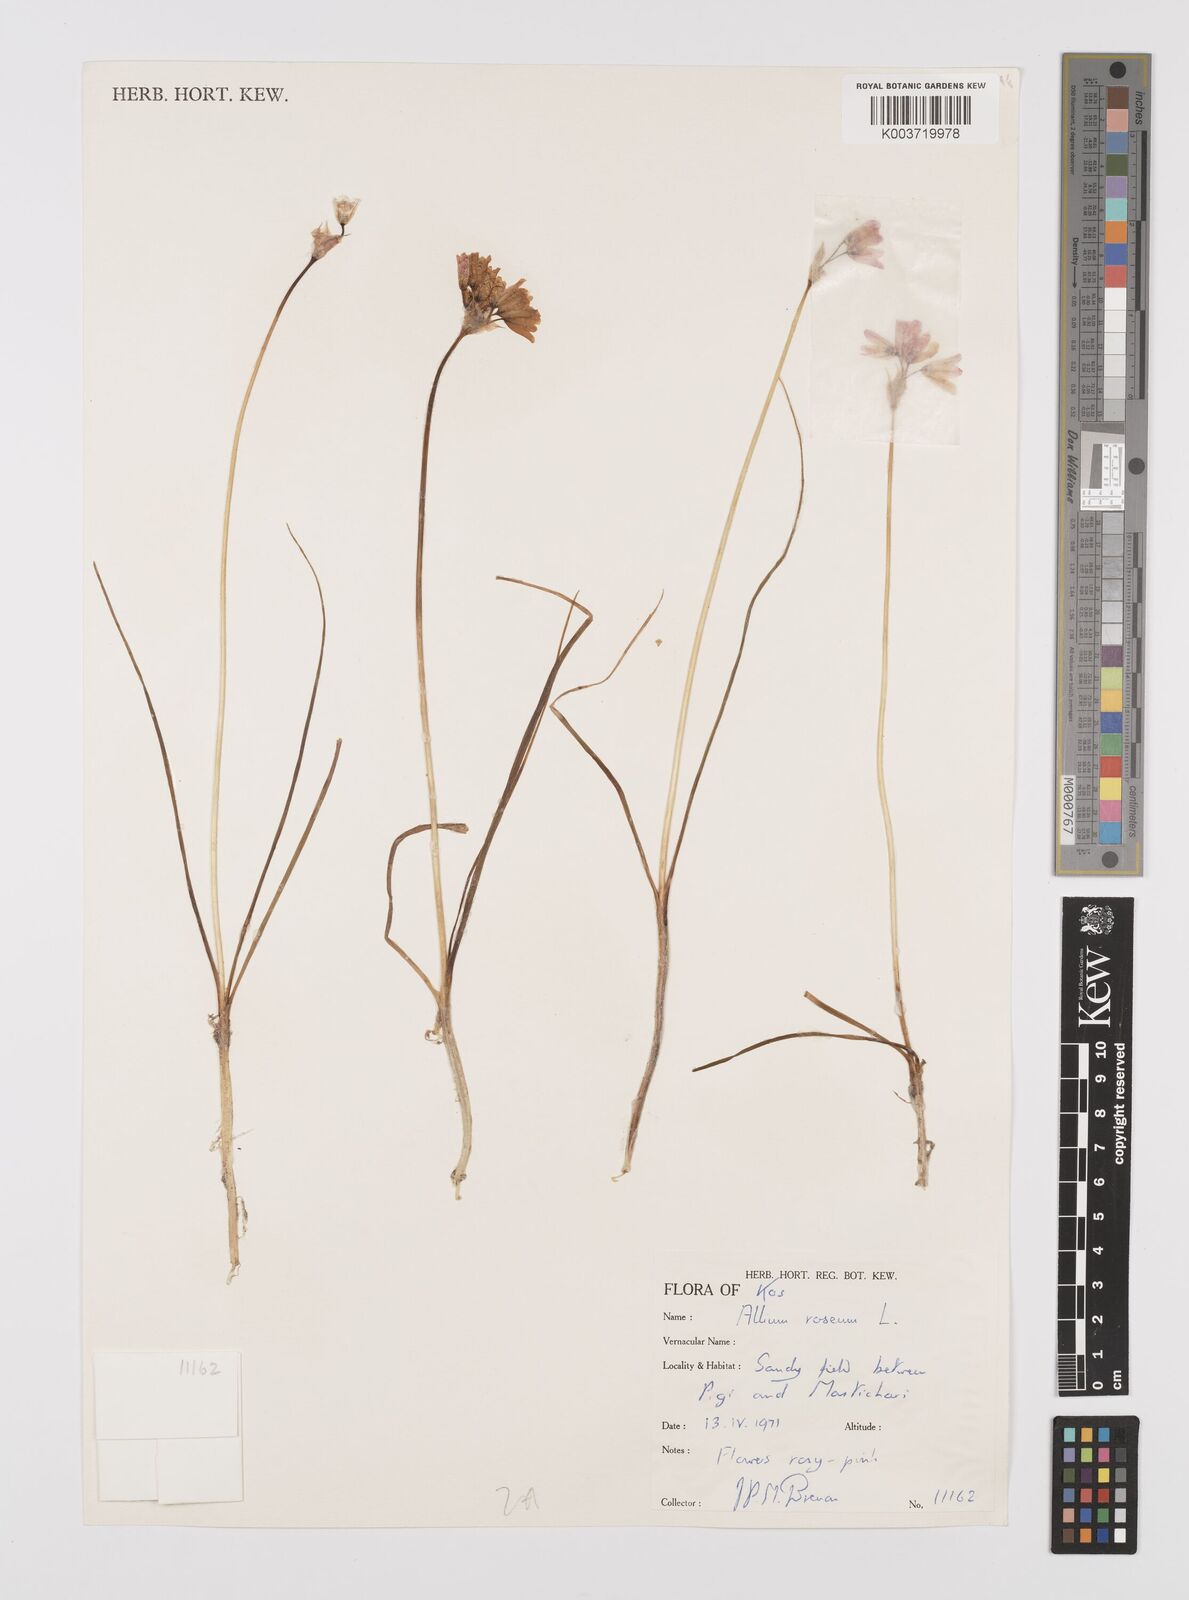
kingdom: Plantae
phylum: Tracheophyta
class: Liliopsida
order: Asparagales
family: Amaryllidaceae
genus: Allium
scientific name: Allium roseum
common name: Rosy garlic
